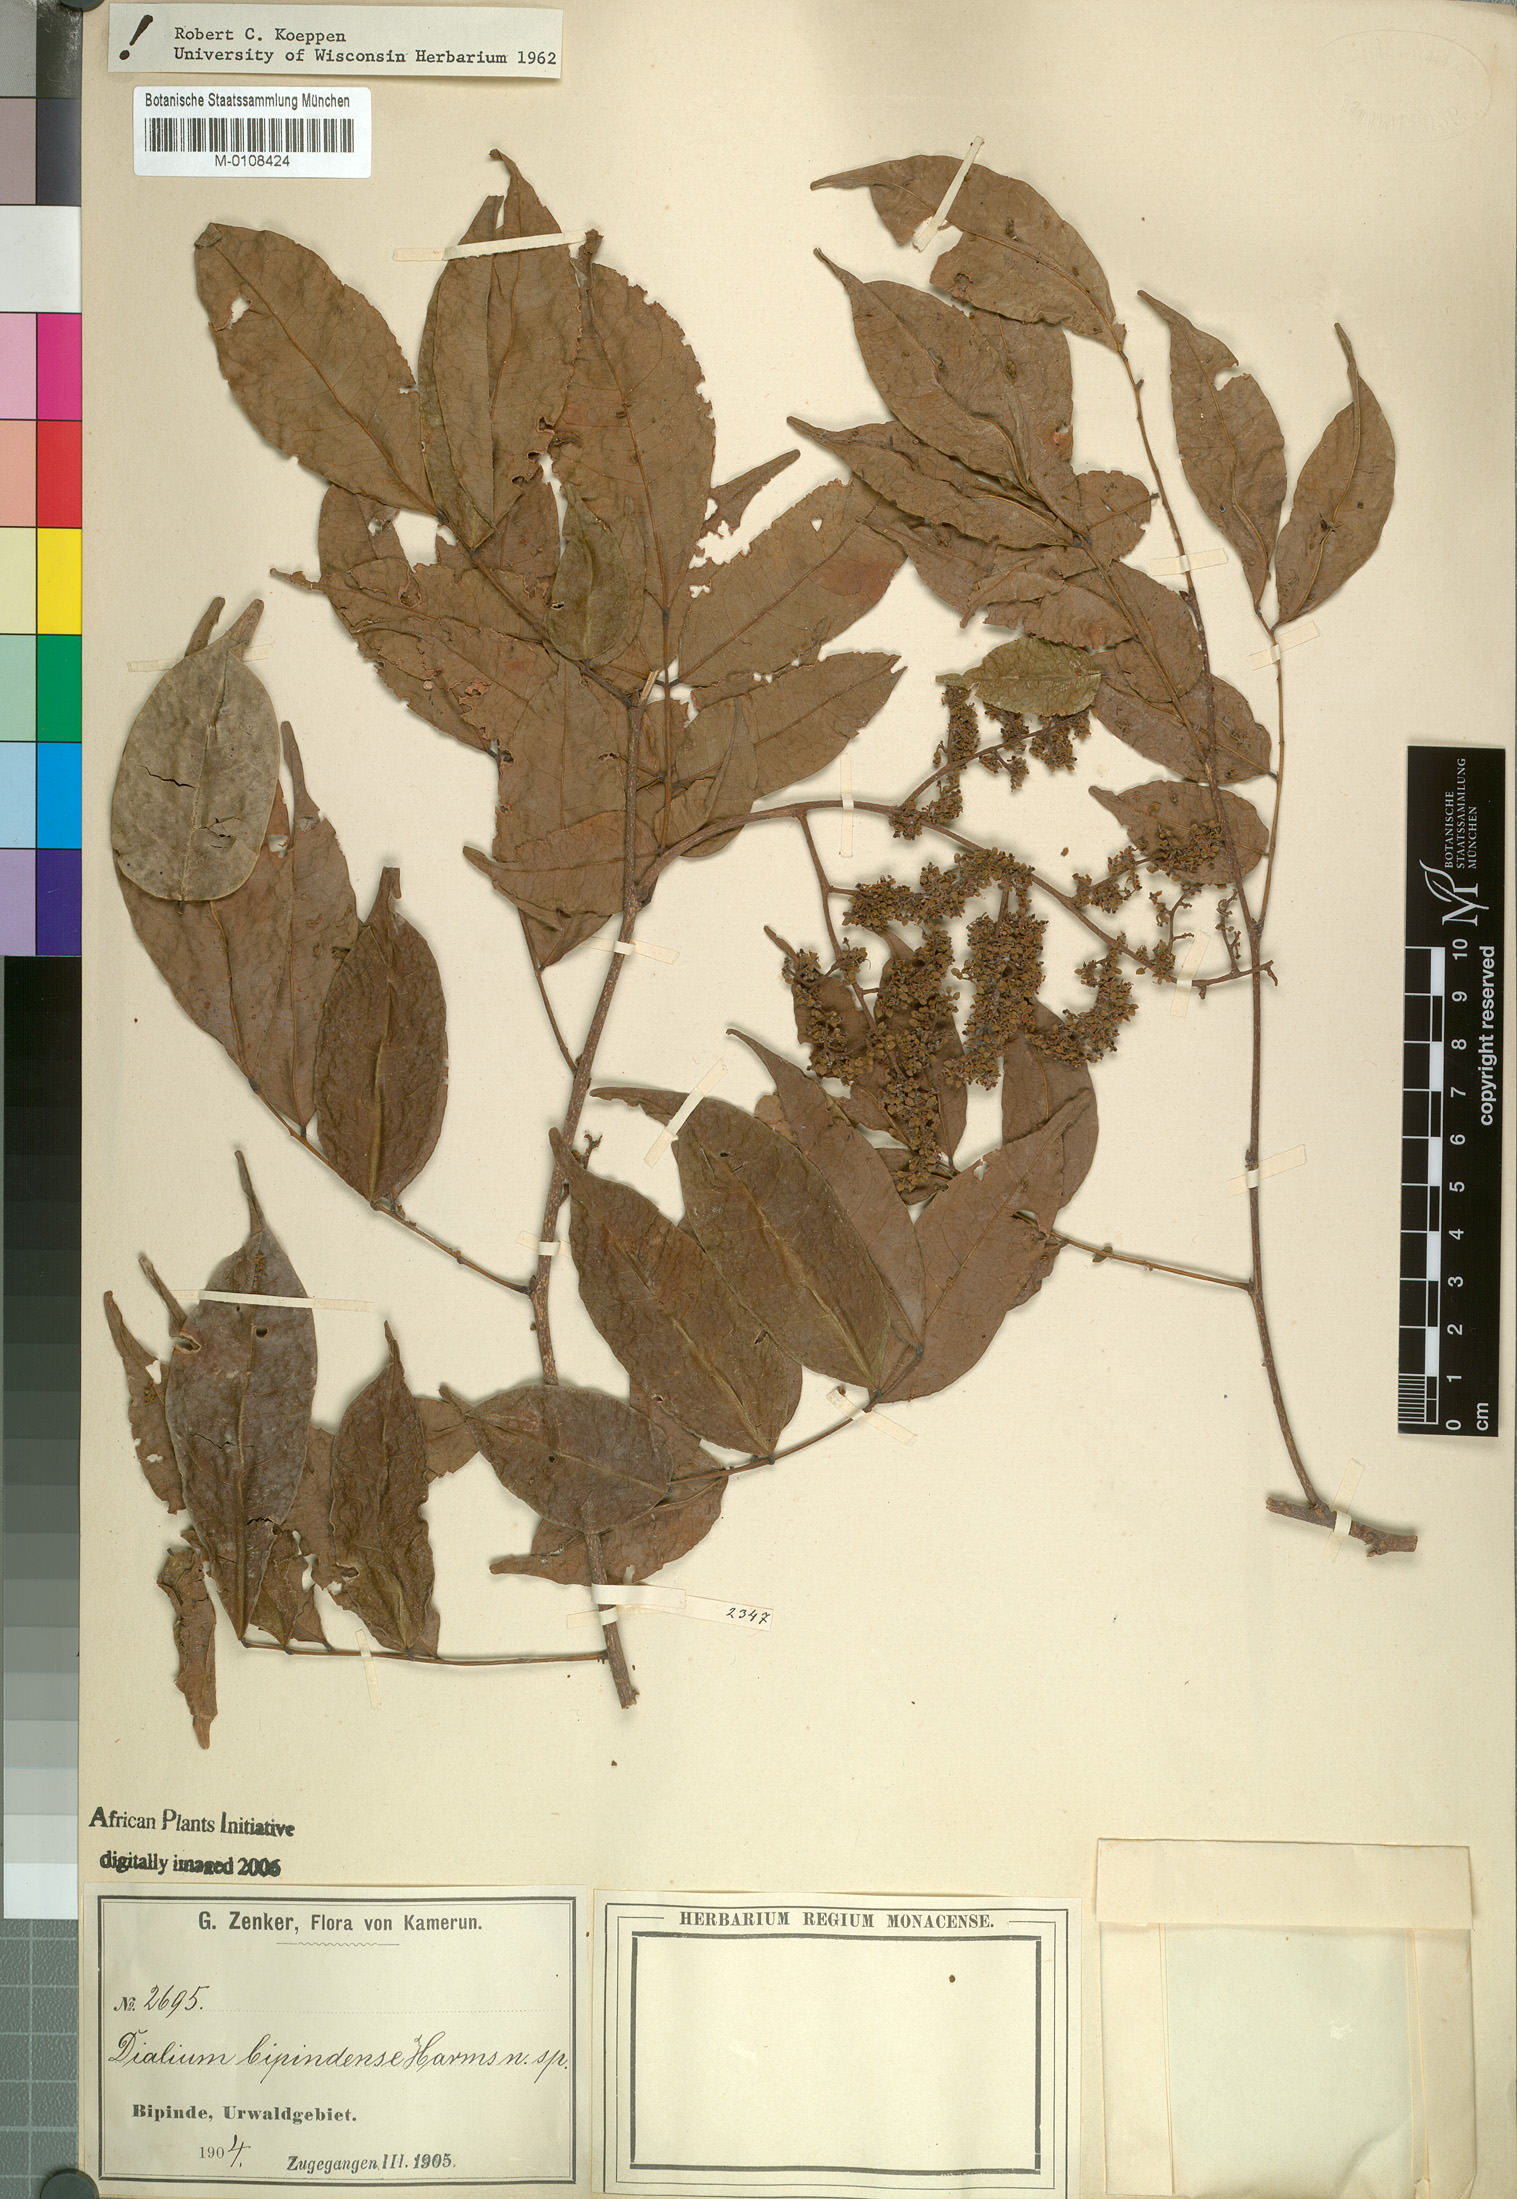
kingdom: Plantae
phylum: Tracheophyta
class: Magnoliopsida
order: Fabales
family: Fabaceae
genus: Dialium
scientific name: Dialium bipindense
